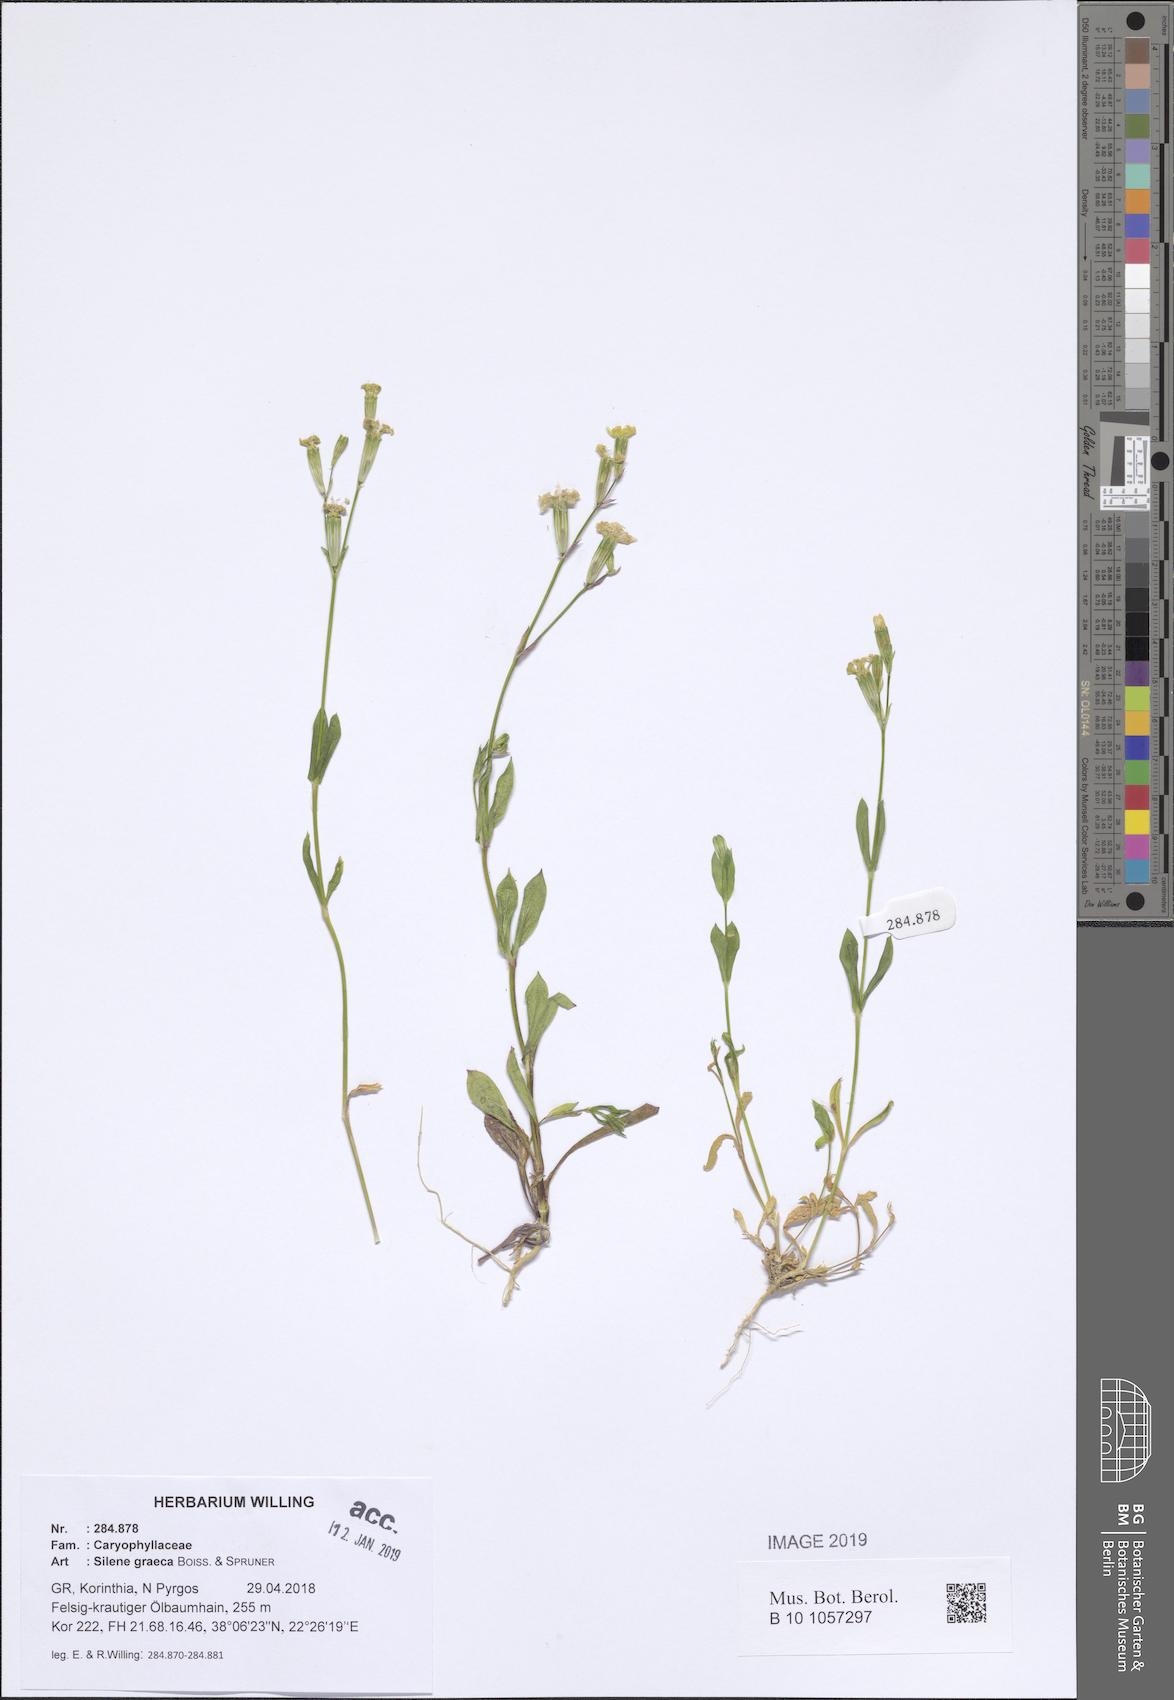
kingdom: Plantae
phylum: Tracheophyta
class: Magnoliopsida
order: Caryophyllales
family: Caryophyllaceae
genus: Silene
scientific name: Silene graeca
